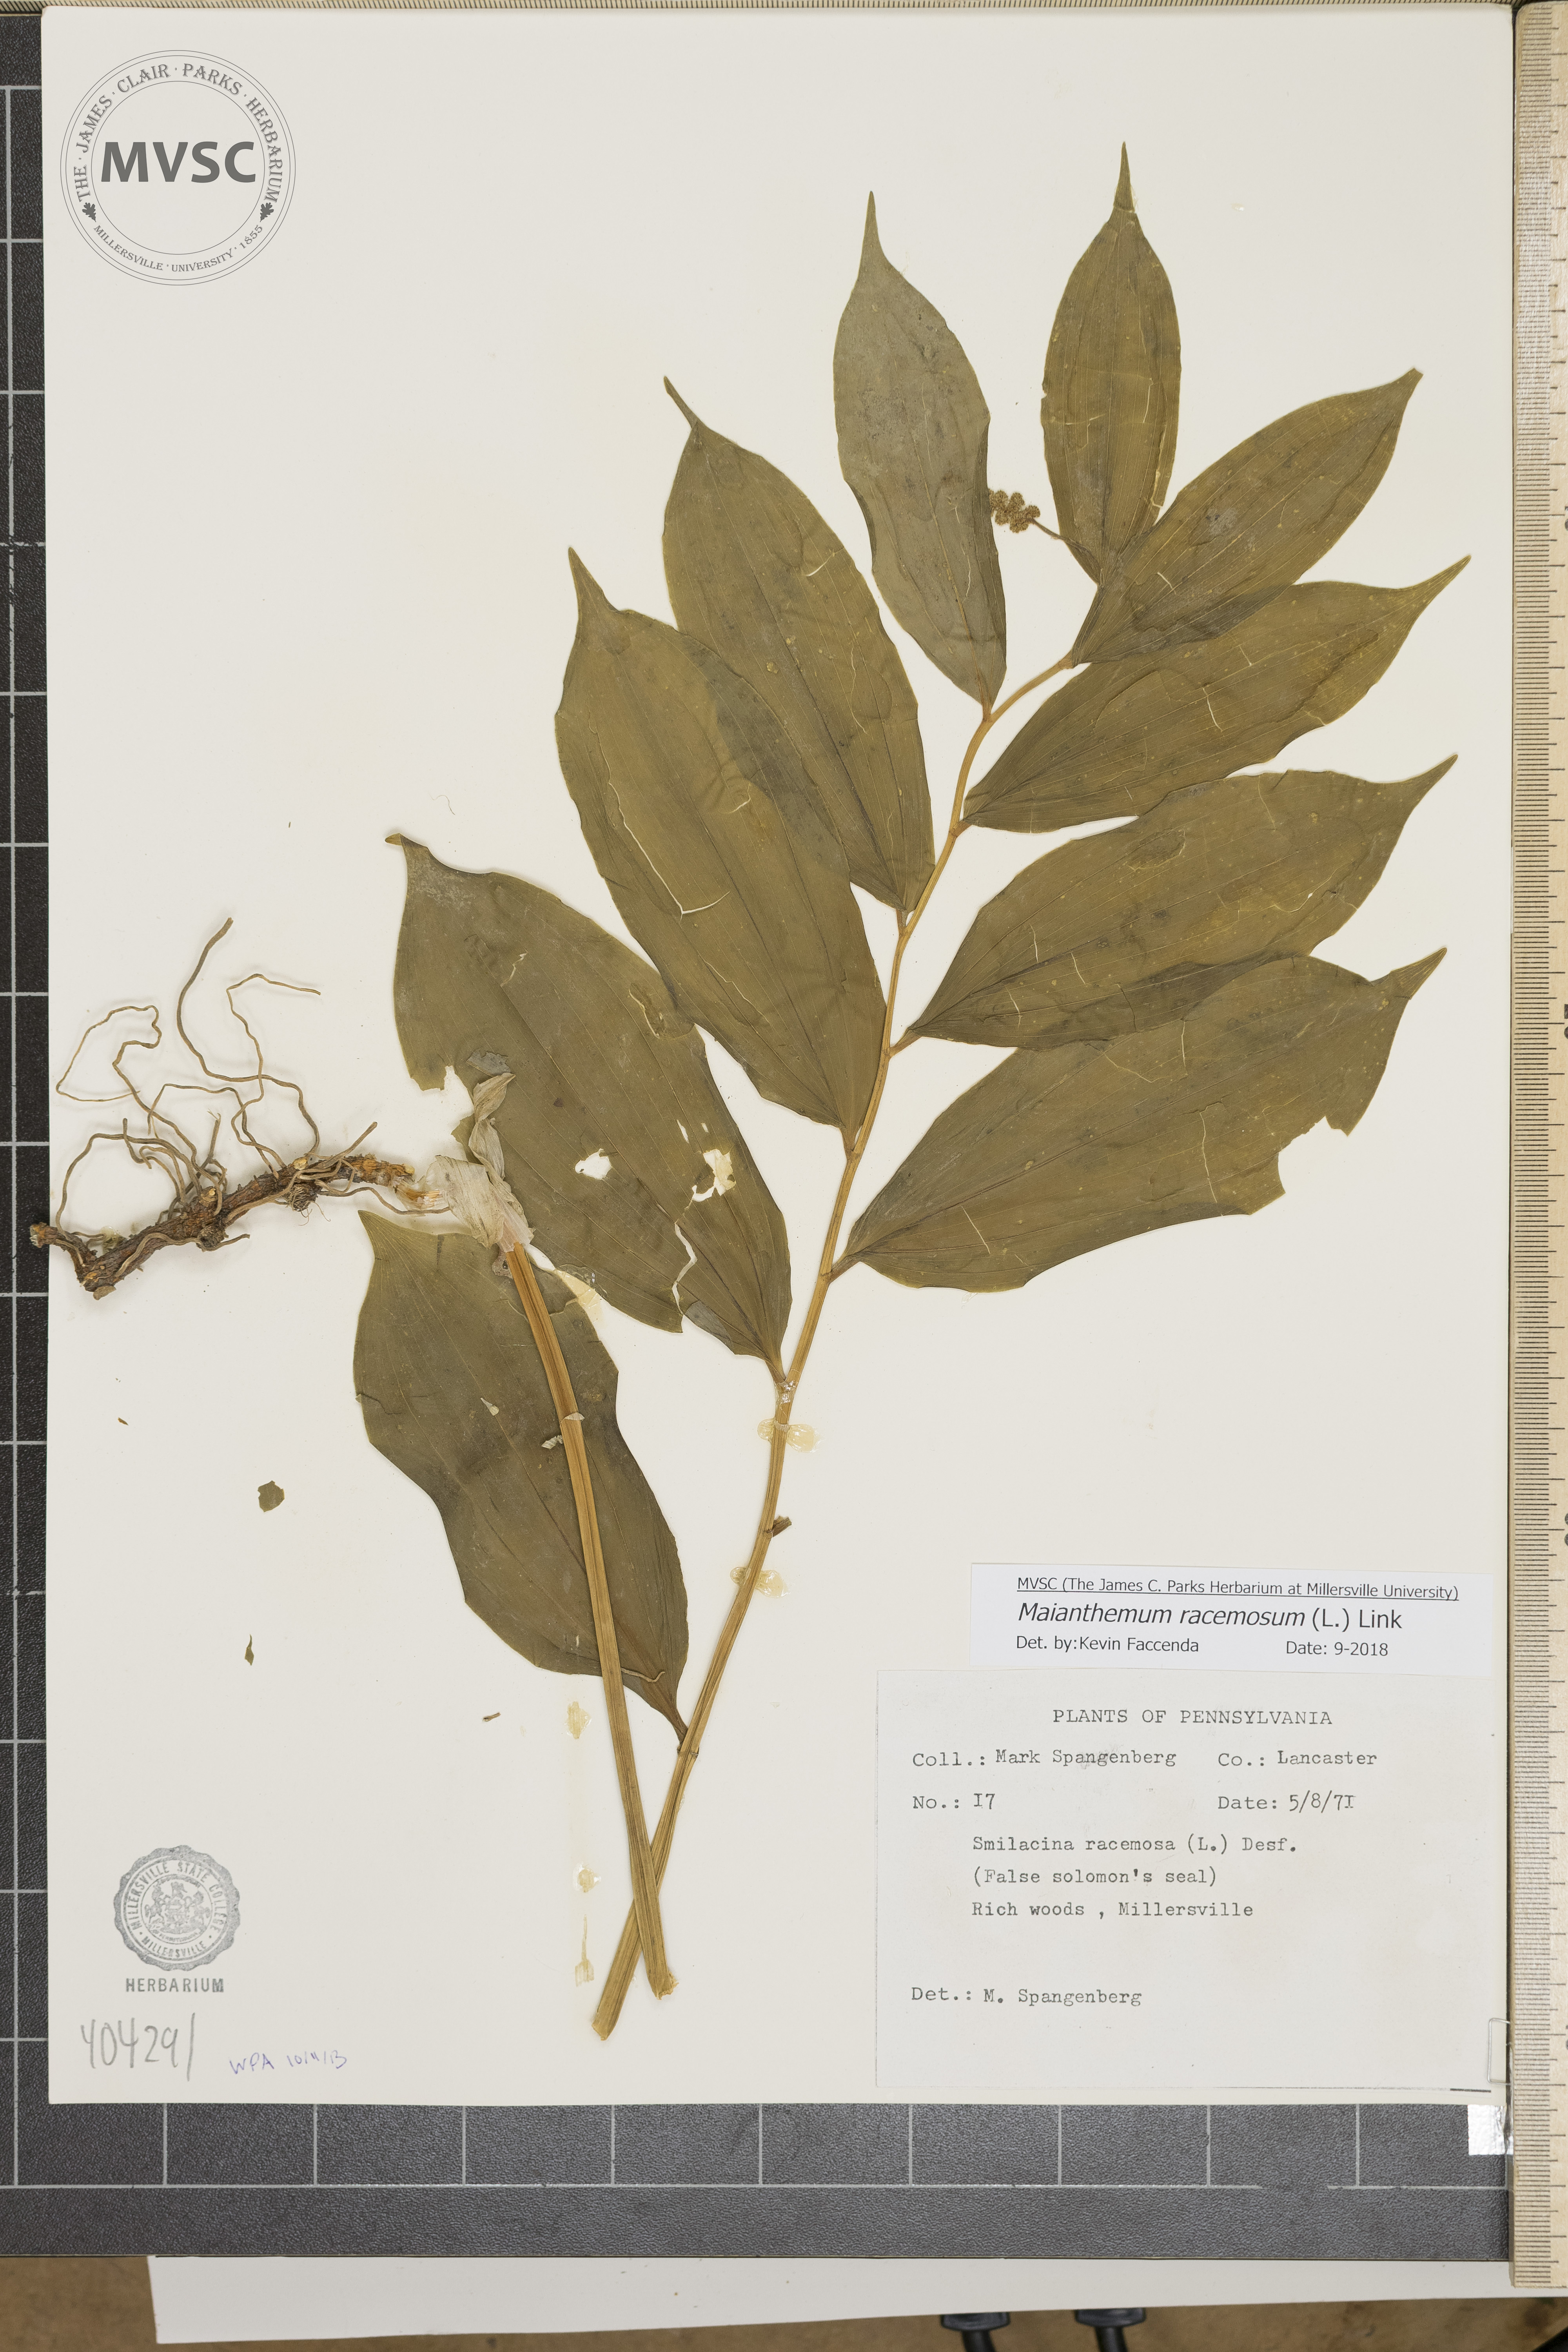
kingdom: Plantae
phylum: Tracheophyta
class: Liliopsida
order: Asparagales
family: Asparagaceae
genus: Maianthemum
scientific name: Maianthemum racemosum
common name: False Solomon's Seal
